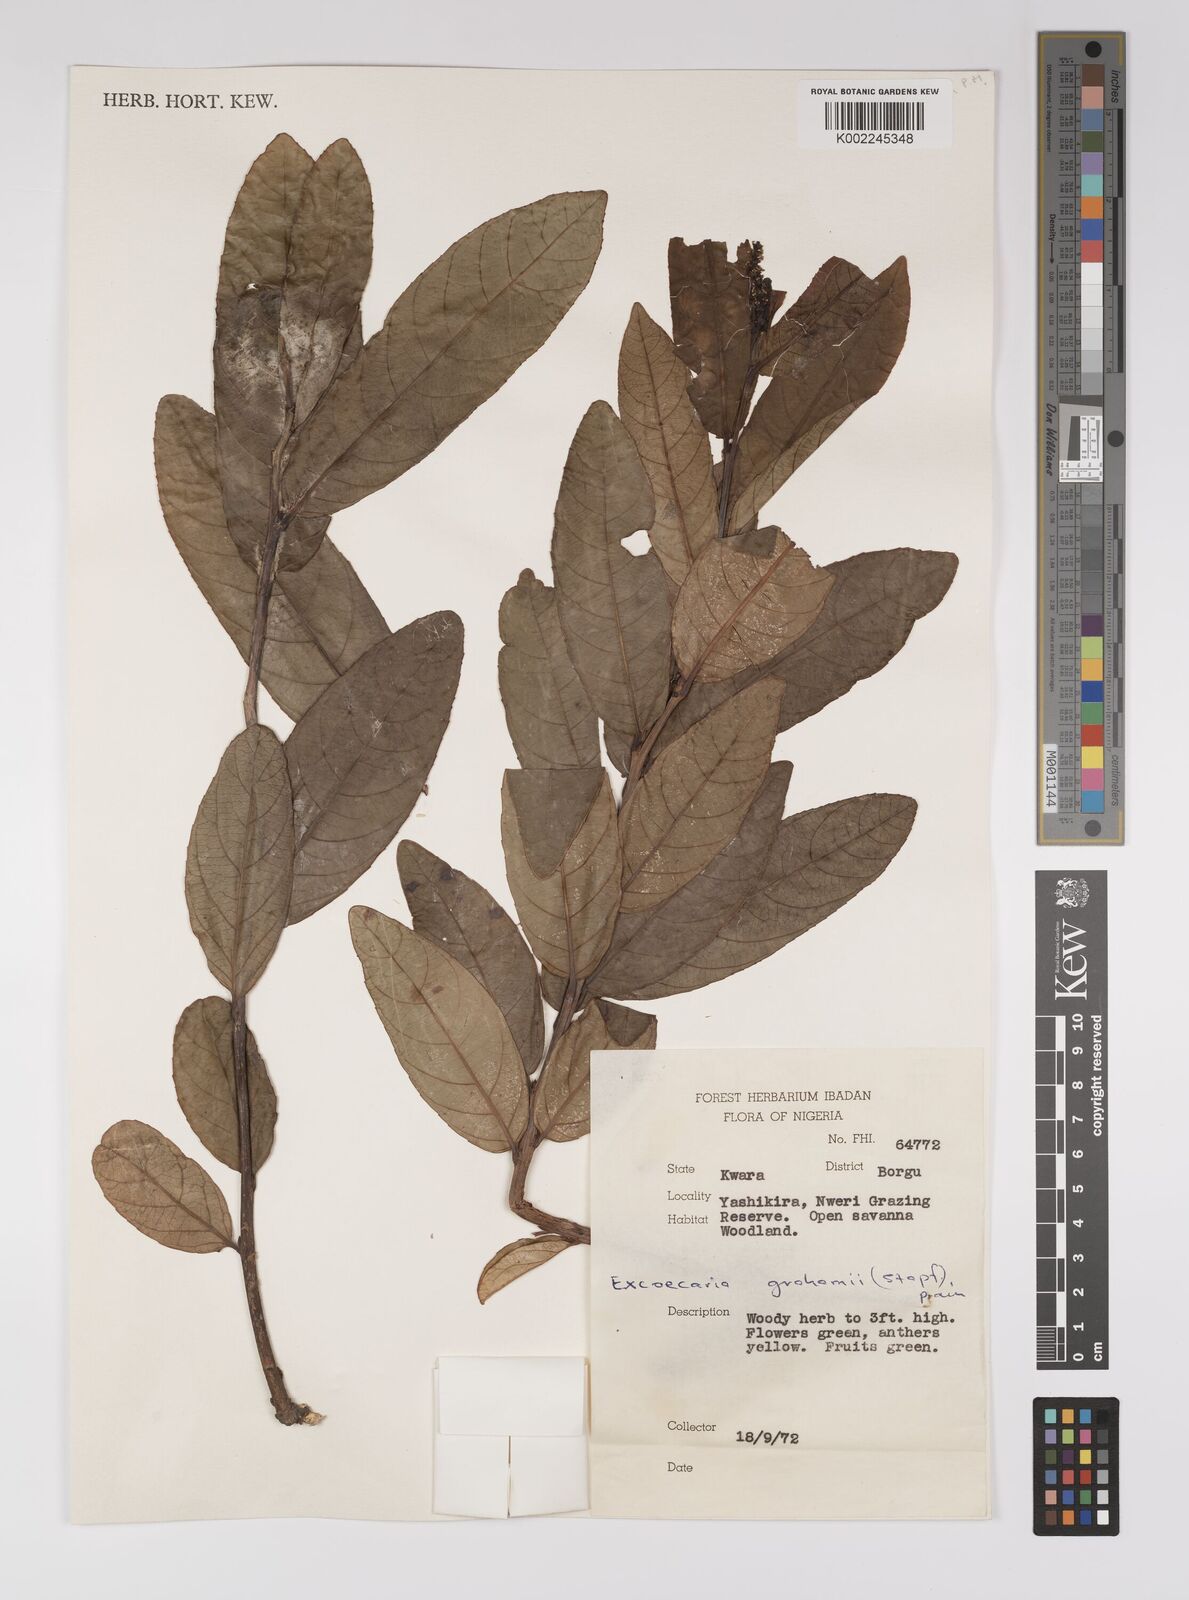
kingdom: Plantae
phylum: Tracheophyta
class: Magnoliopsida
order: Malpighiales
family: Euphorbiaceae
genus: Excoecaria
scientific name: Excoecaria grahamii
